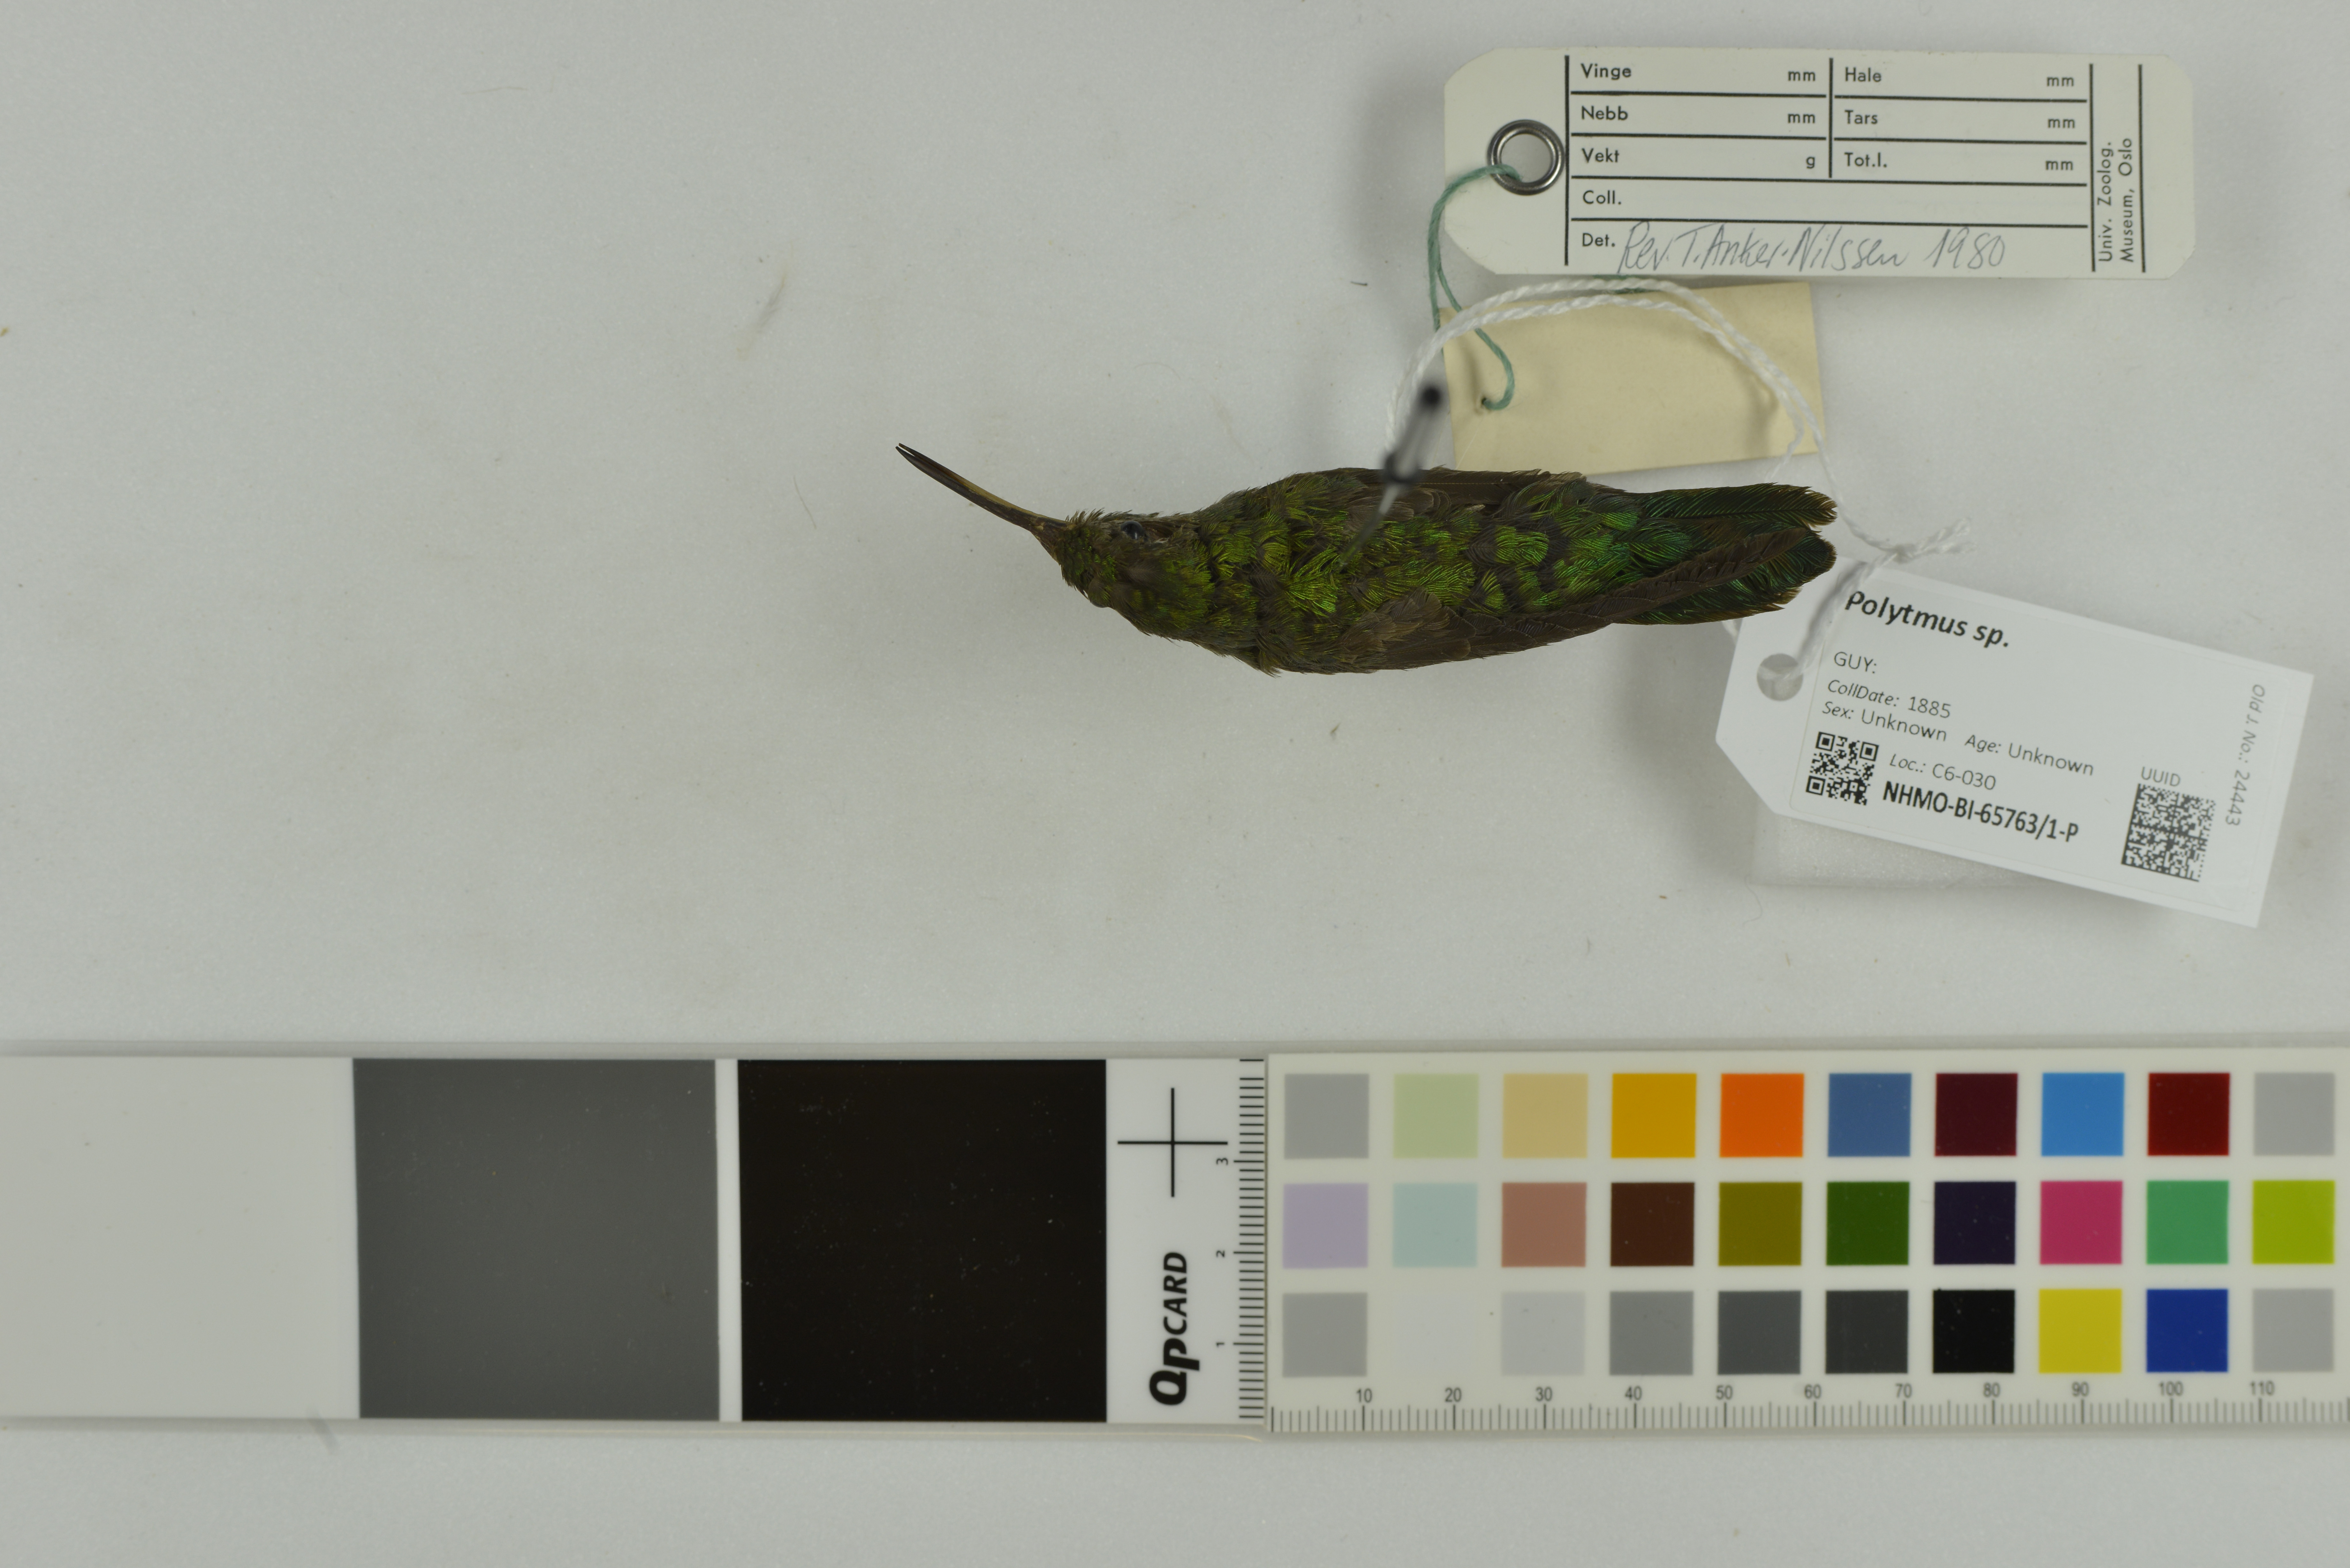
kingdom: Animalia
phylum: Chordata
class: Aves
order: Apodiformes
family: Trochilidae
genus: Polytmus
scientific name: Polytmus
